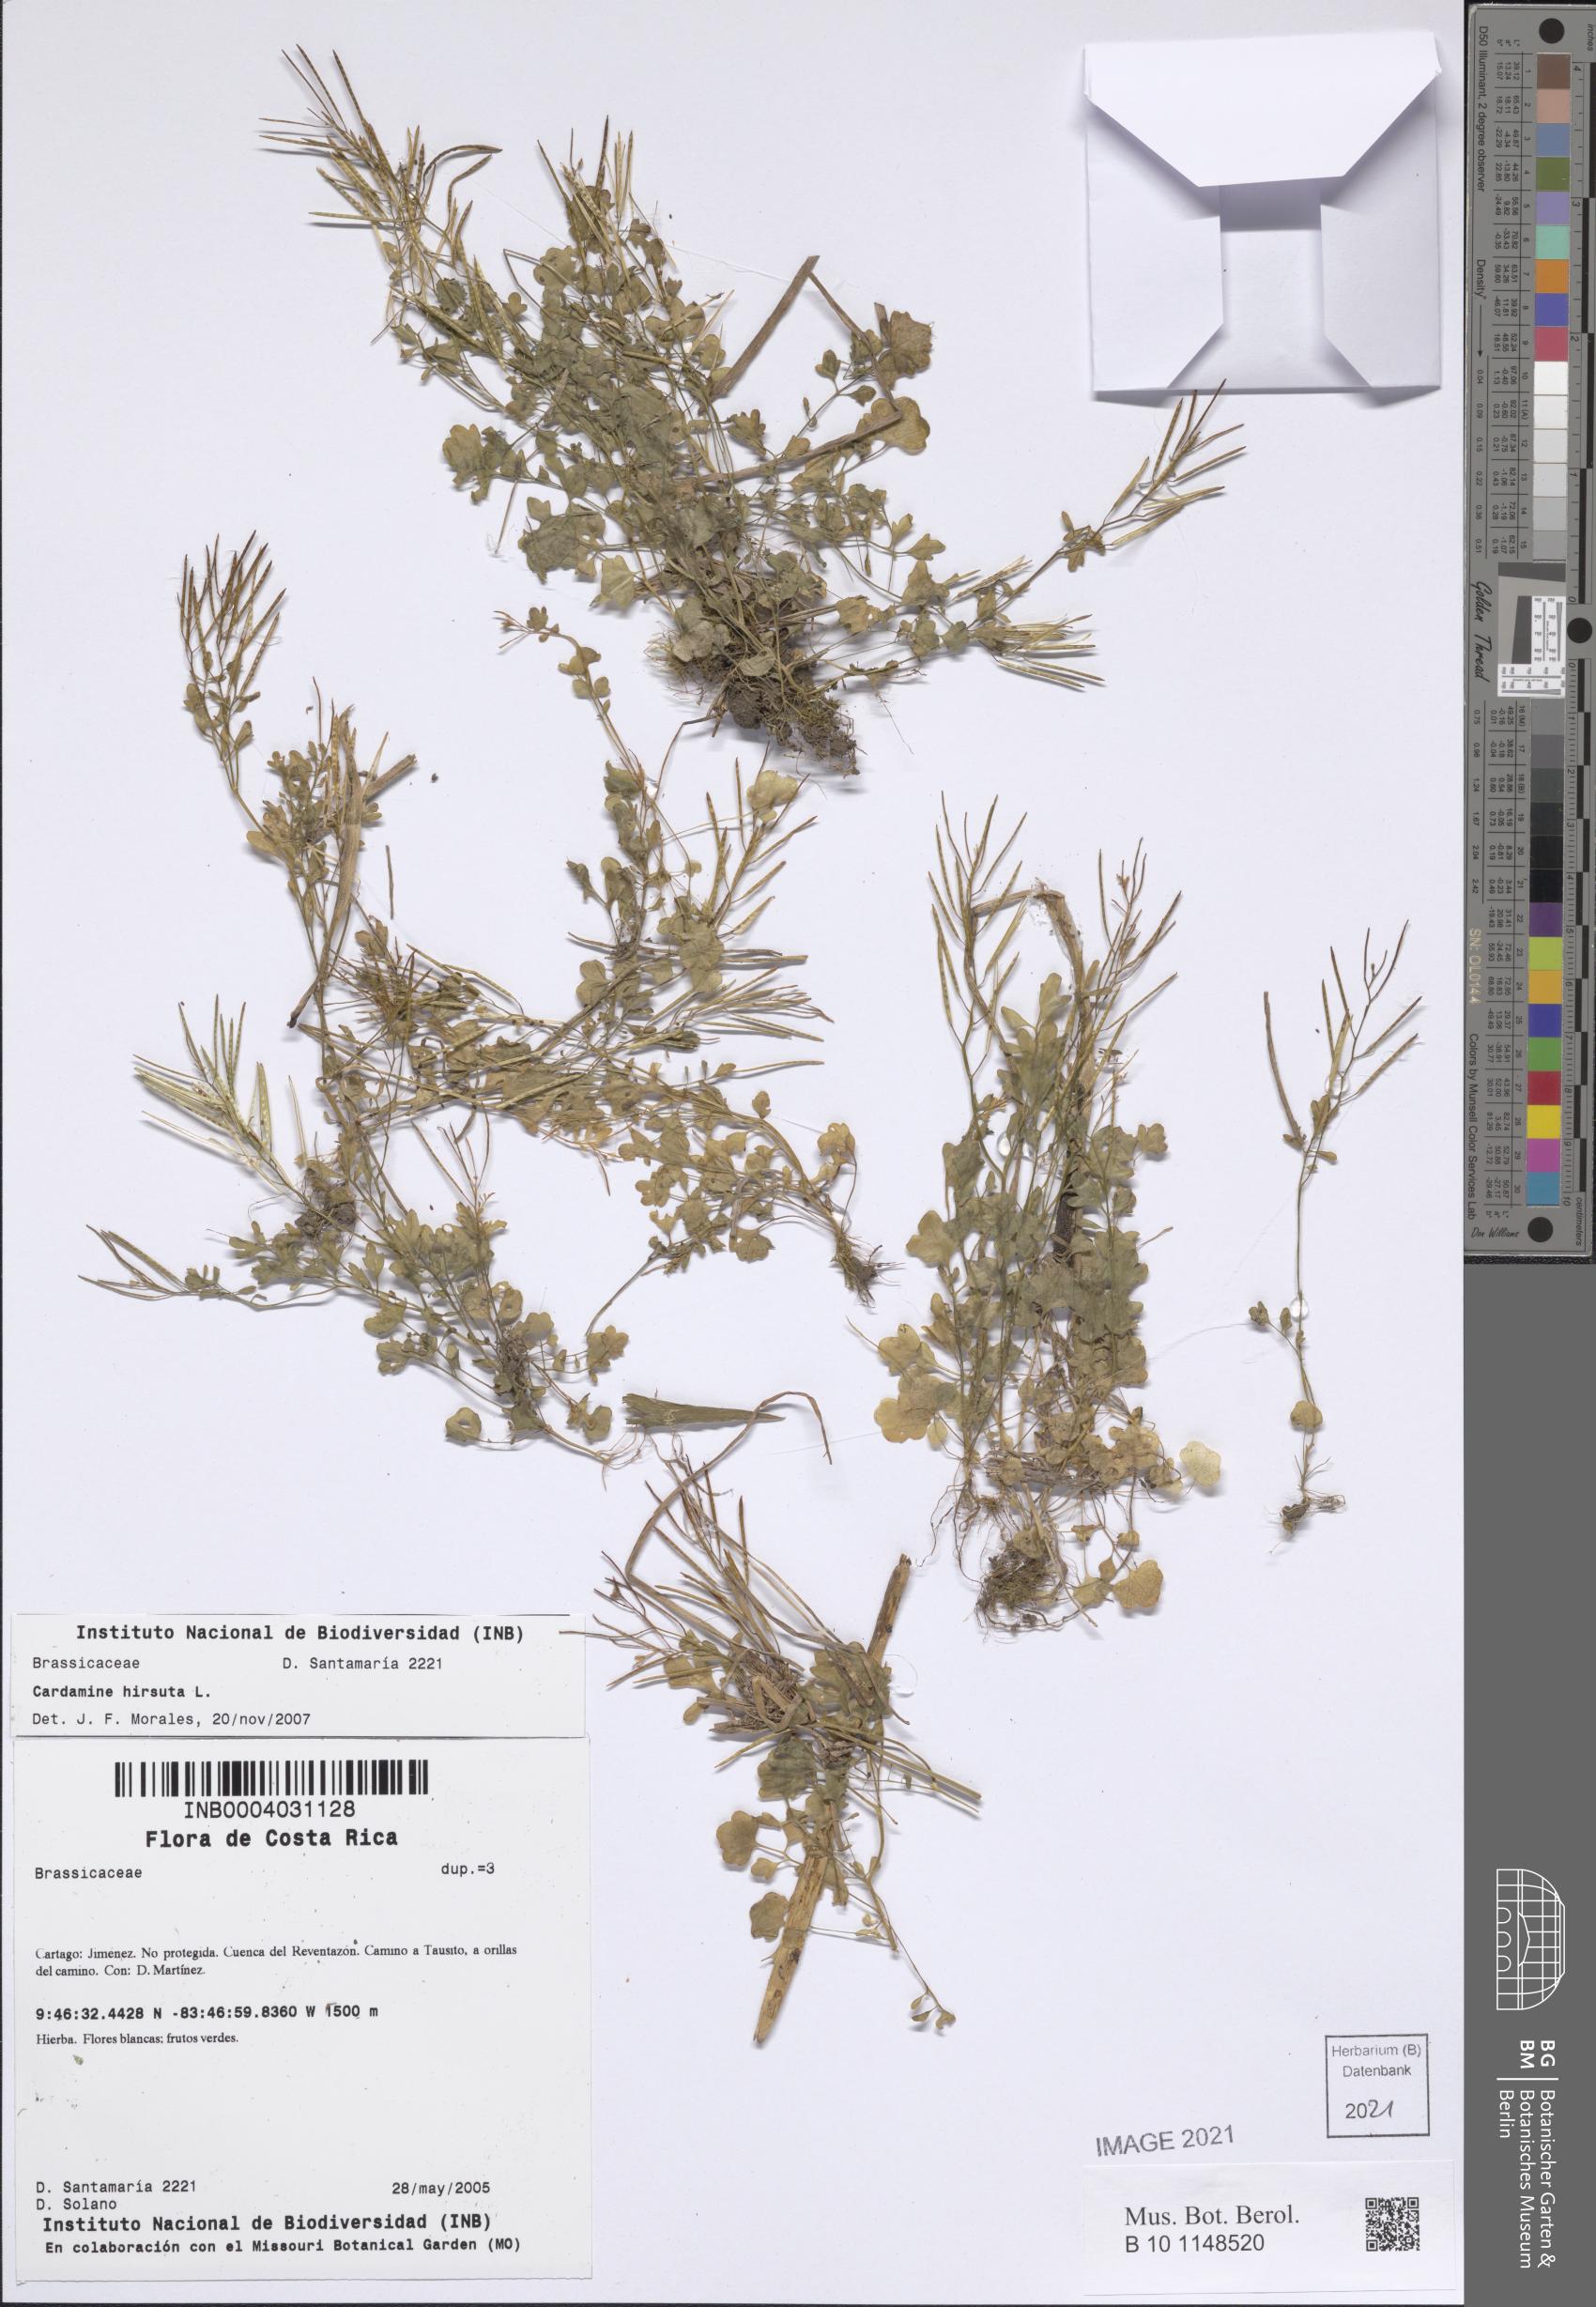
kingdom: Plantae
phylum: Tracheophyta
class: Magnoliopsida
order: Brassicales
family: Brassicaceae
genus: Cardamine
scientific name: Cardamine hirsuta
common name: Hairy bittercress
